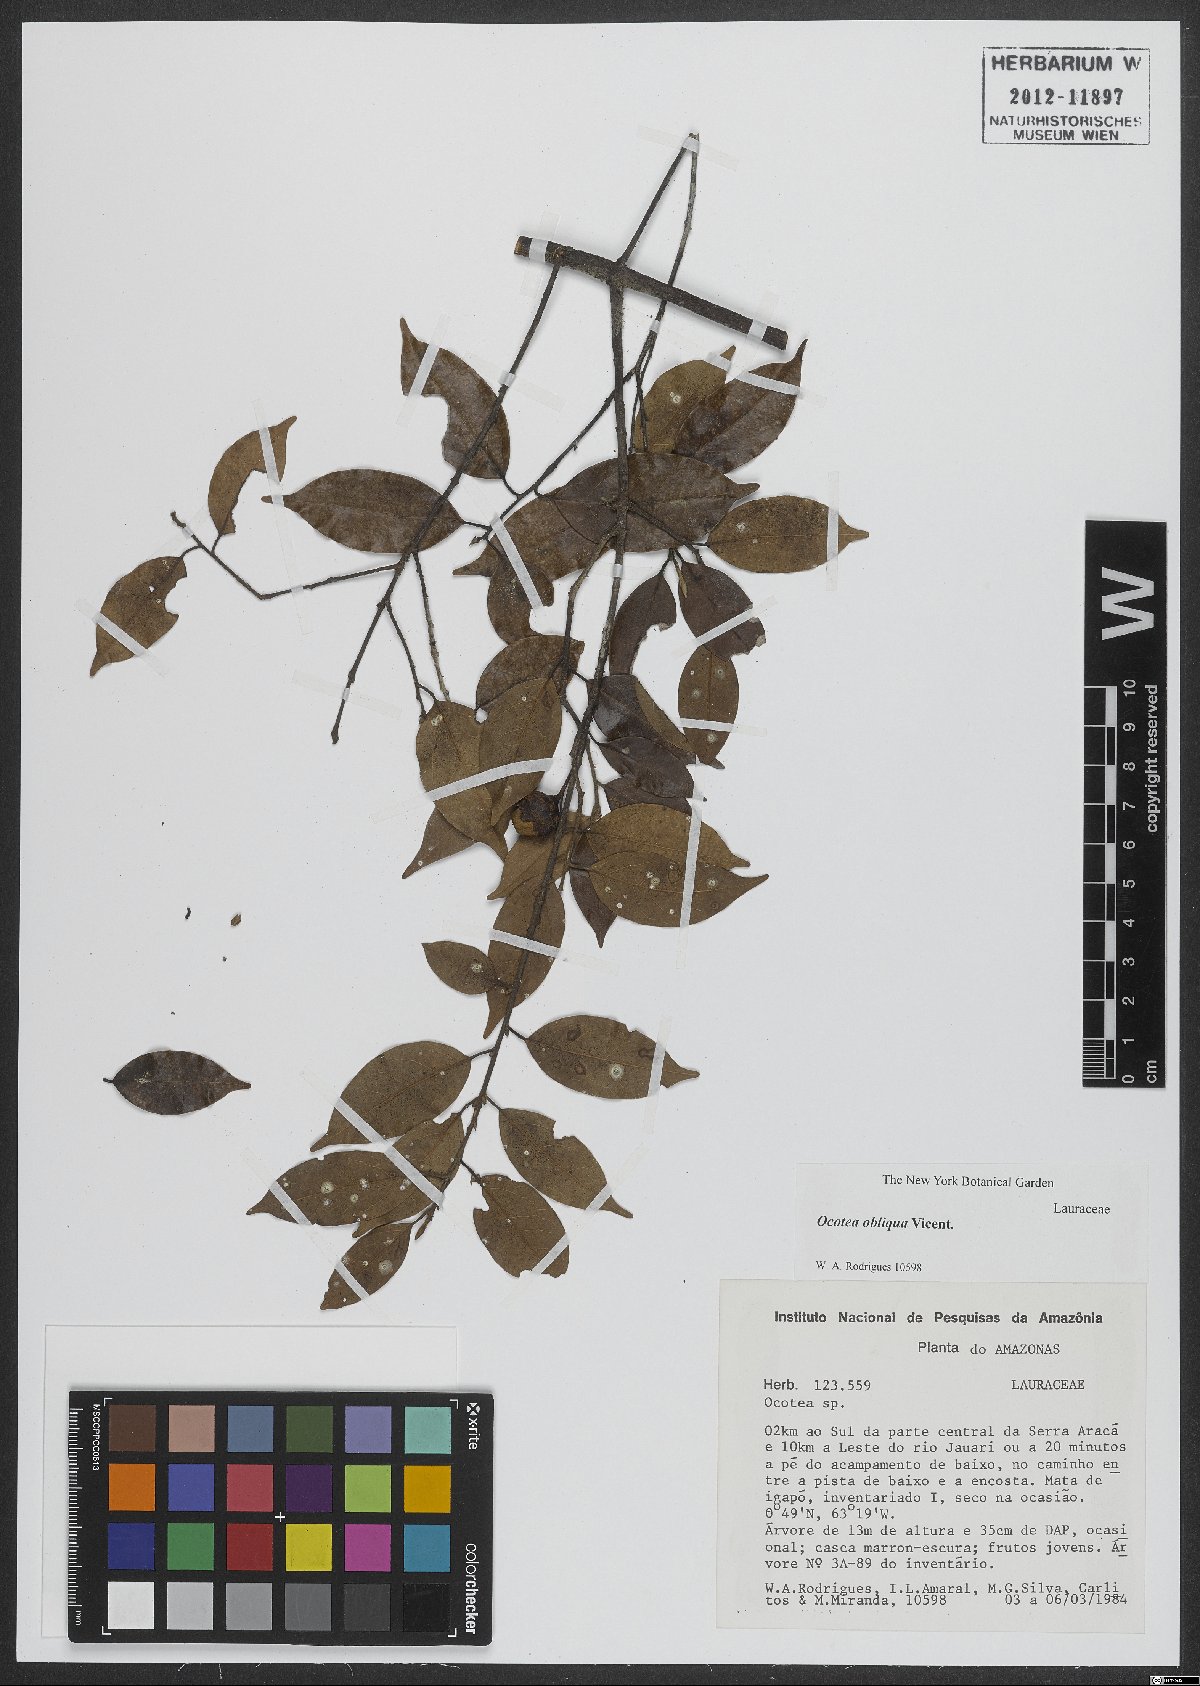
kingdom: Plantae
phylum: Tracheophyta
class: Magnoliopsida
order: Laurales
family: Lauraceae
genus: Ocotea
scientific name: Ocotea obliqua
